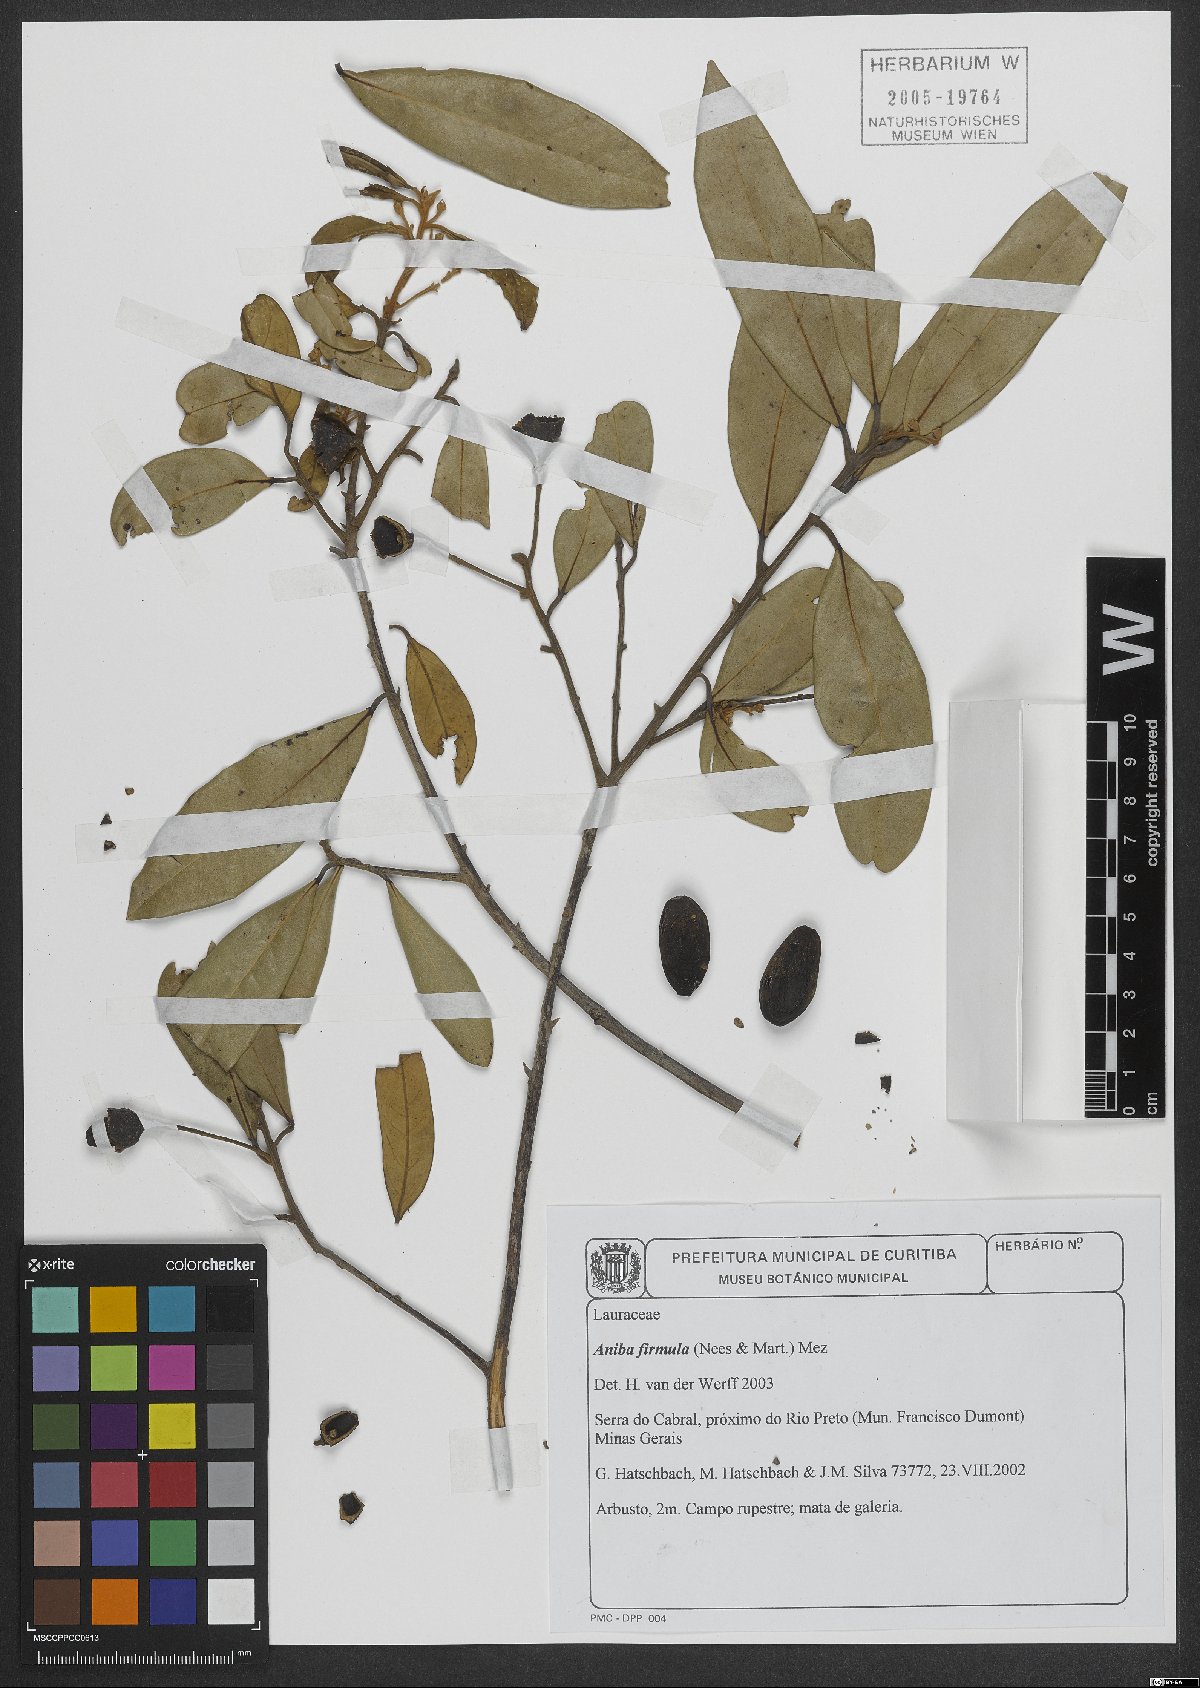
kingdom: Plantae
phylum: Tracheophyta
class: Magnoliopsida
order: Laurales
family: Lauraceae
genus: Aniba
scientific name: Aniba firmula
